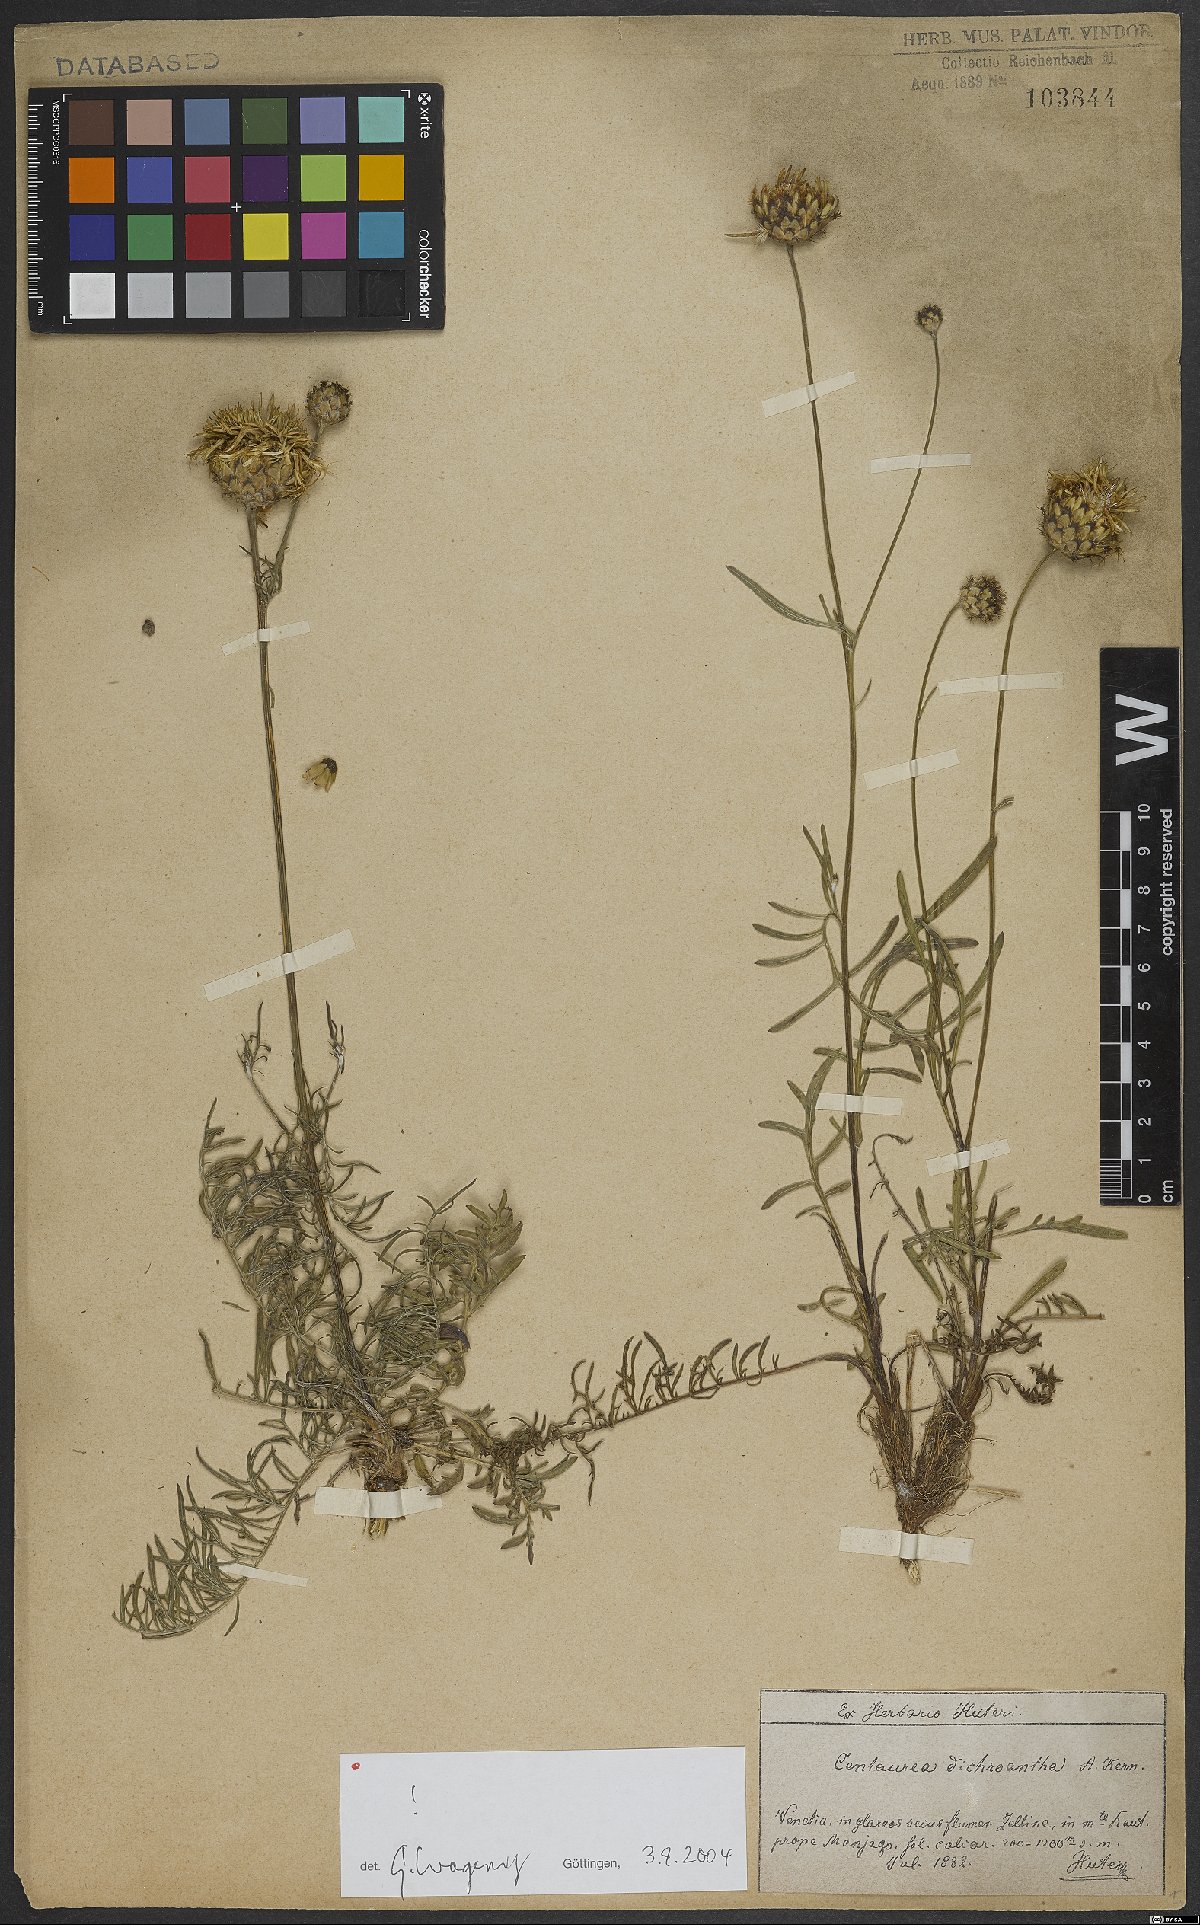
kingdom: Plantae
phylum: Tracheophyta
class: Magnoliopsida
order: Asterales
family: Asteraceae
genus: Centaurea
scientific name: Centaurea dichroantha
